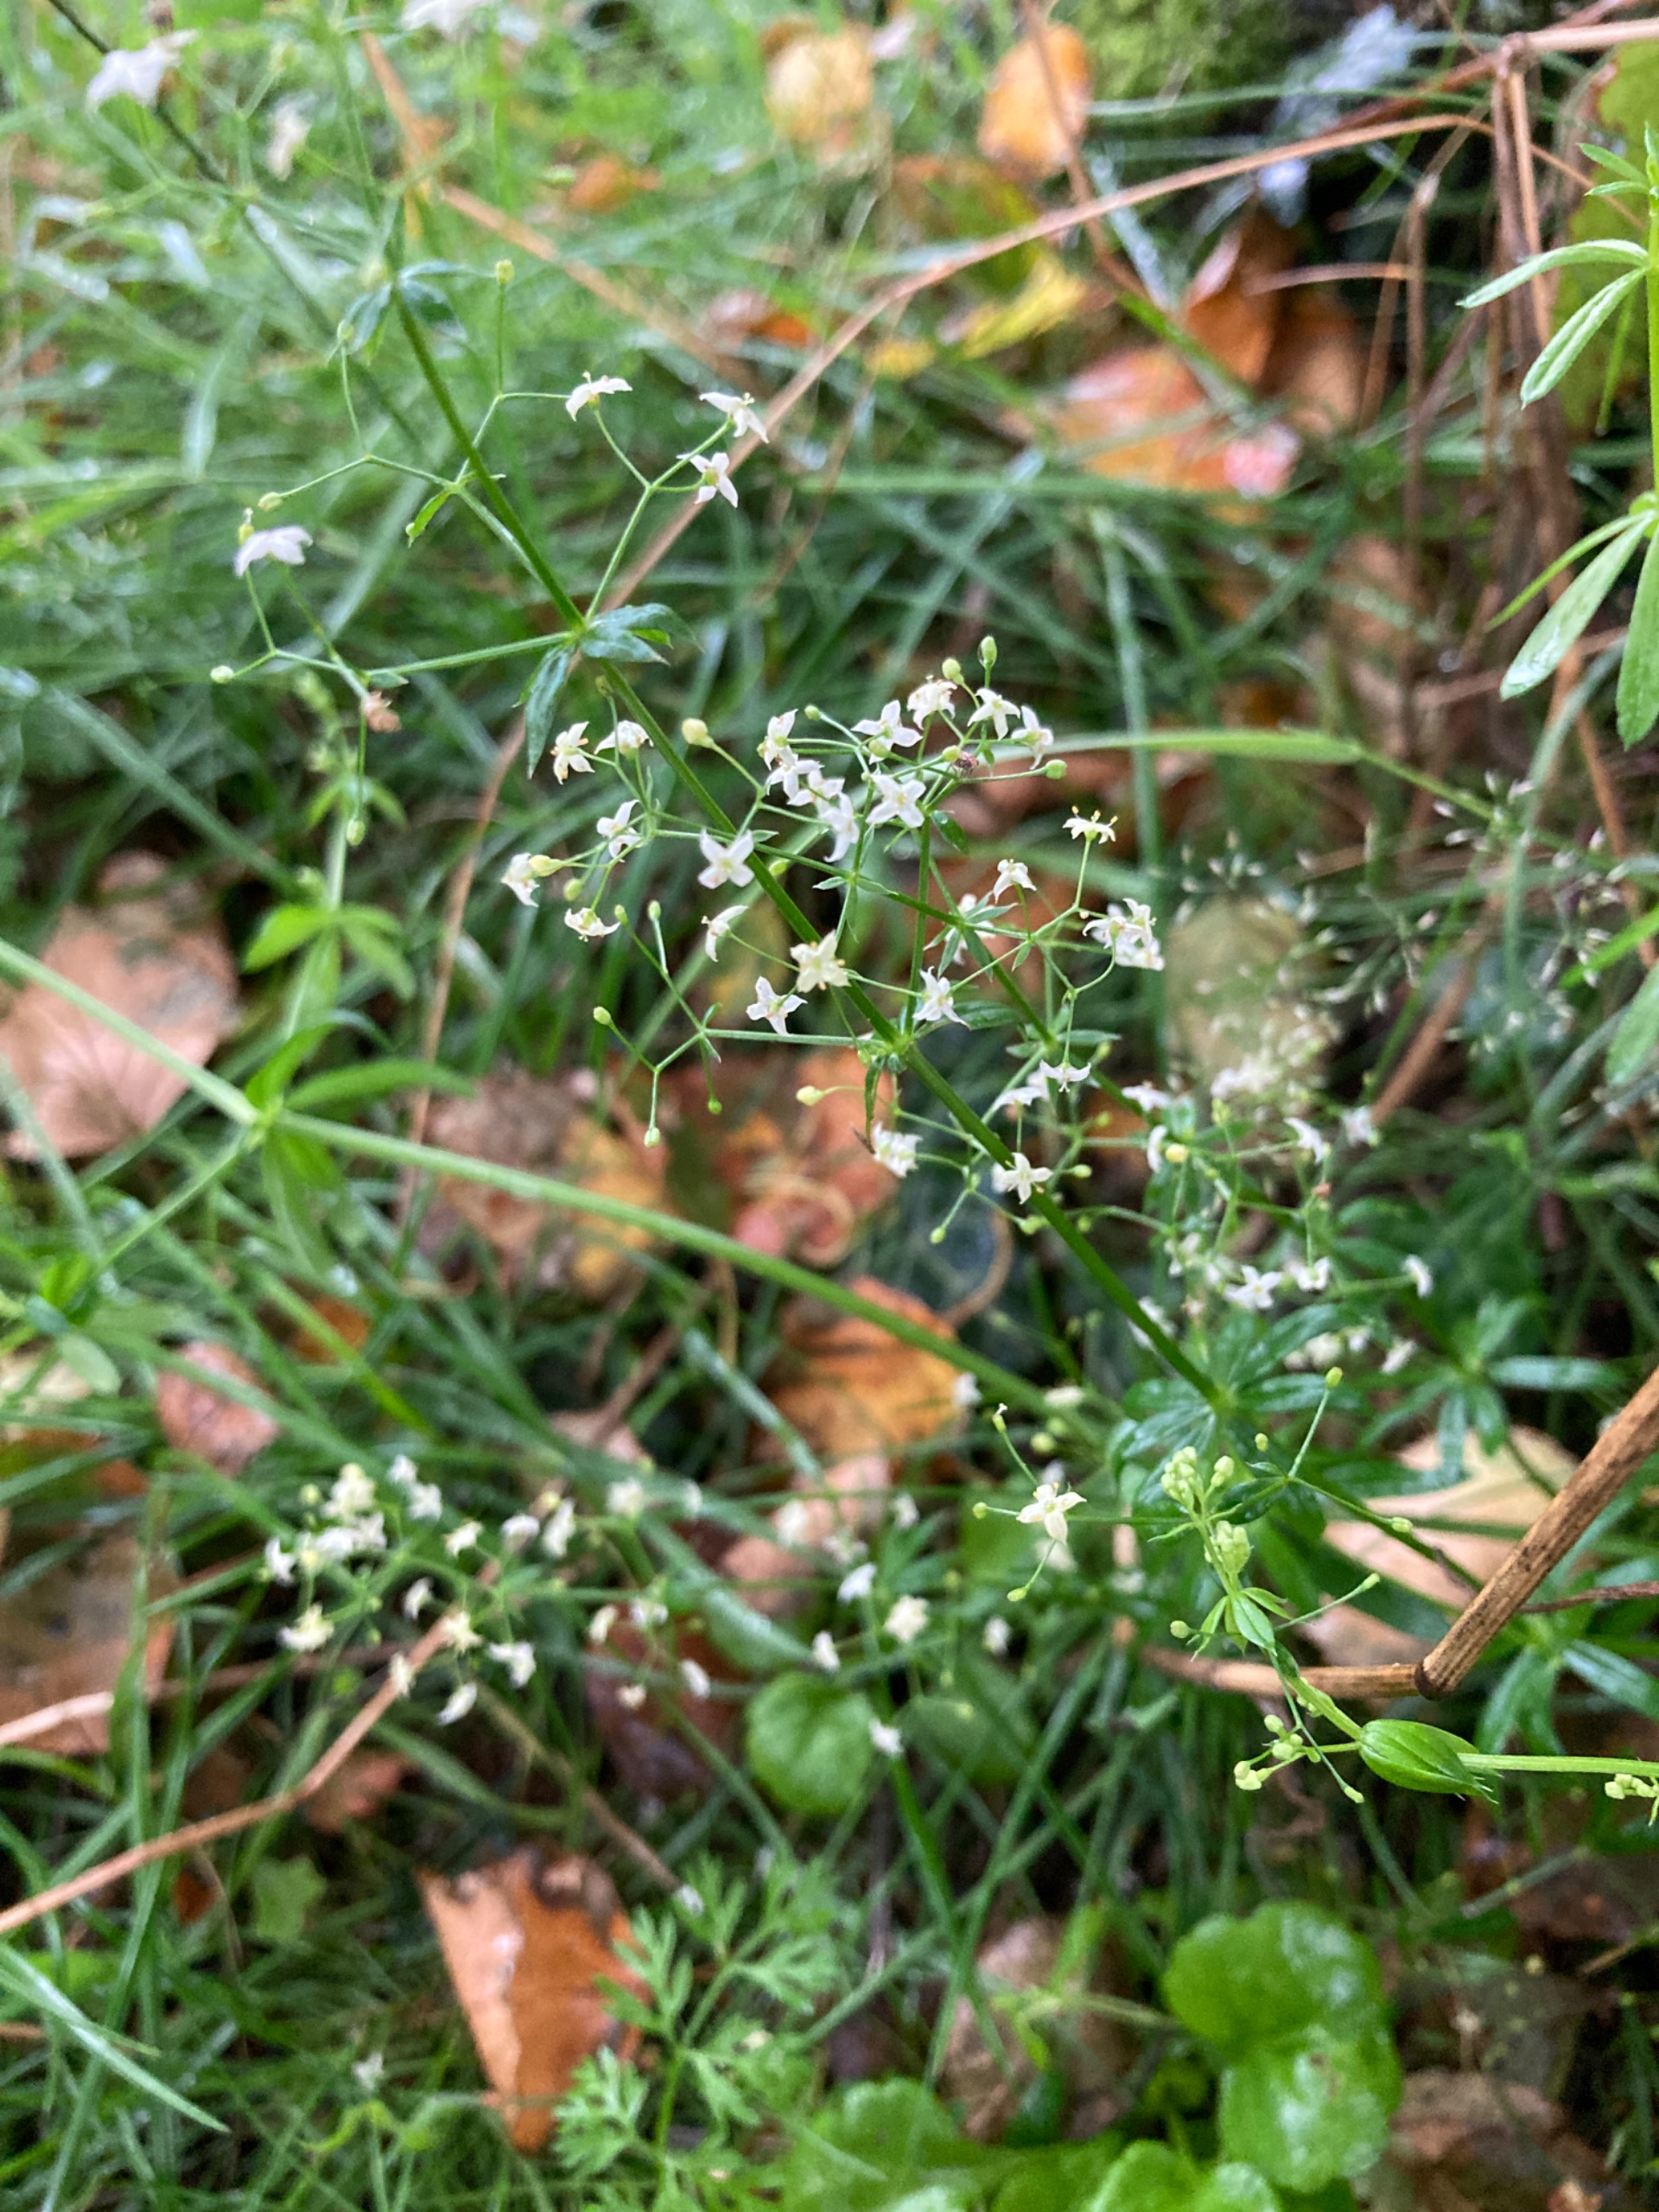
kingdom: Plantae
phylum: Tracheophyta
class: Magnoliopsida
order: Gentianales
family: Rubiaceae
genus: Galium
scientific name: Galium mollugo
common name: Hvid snerre
